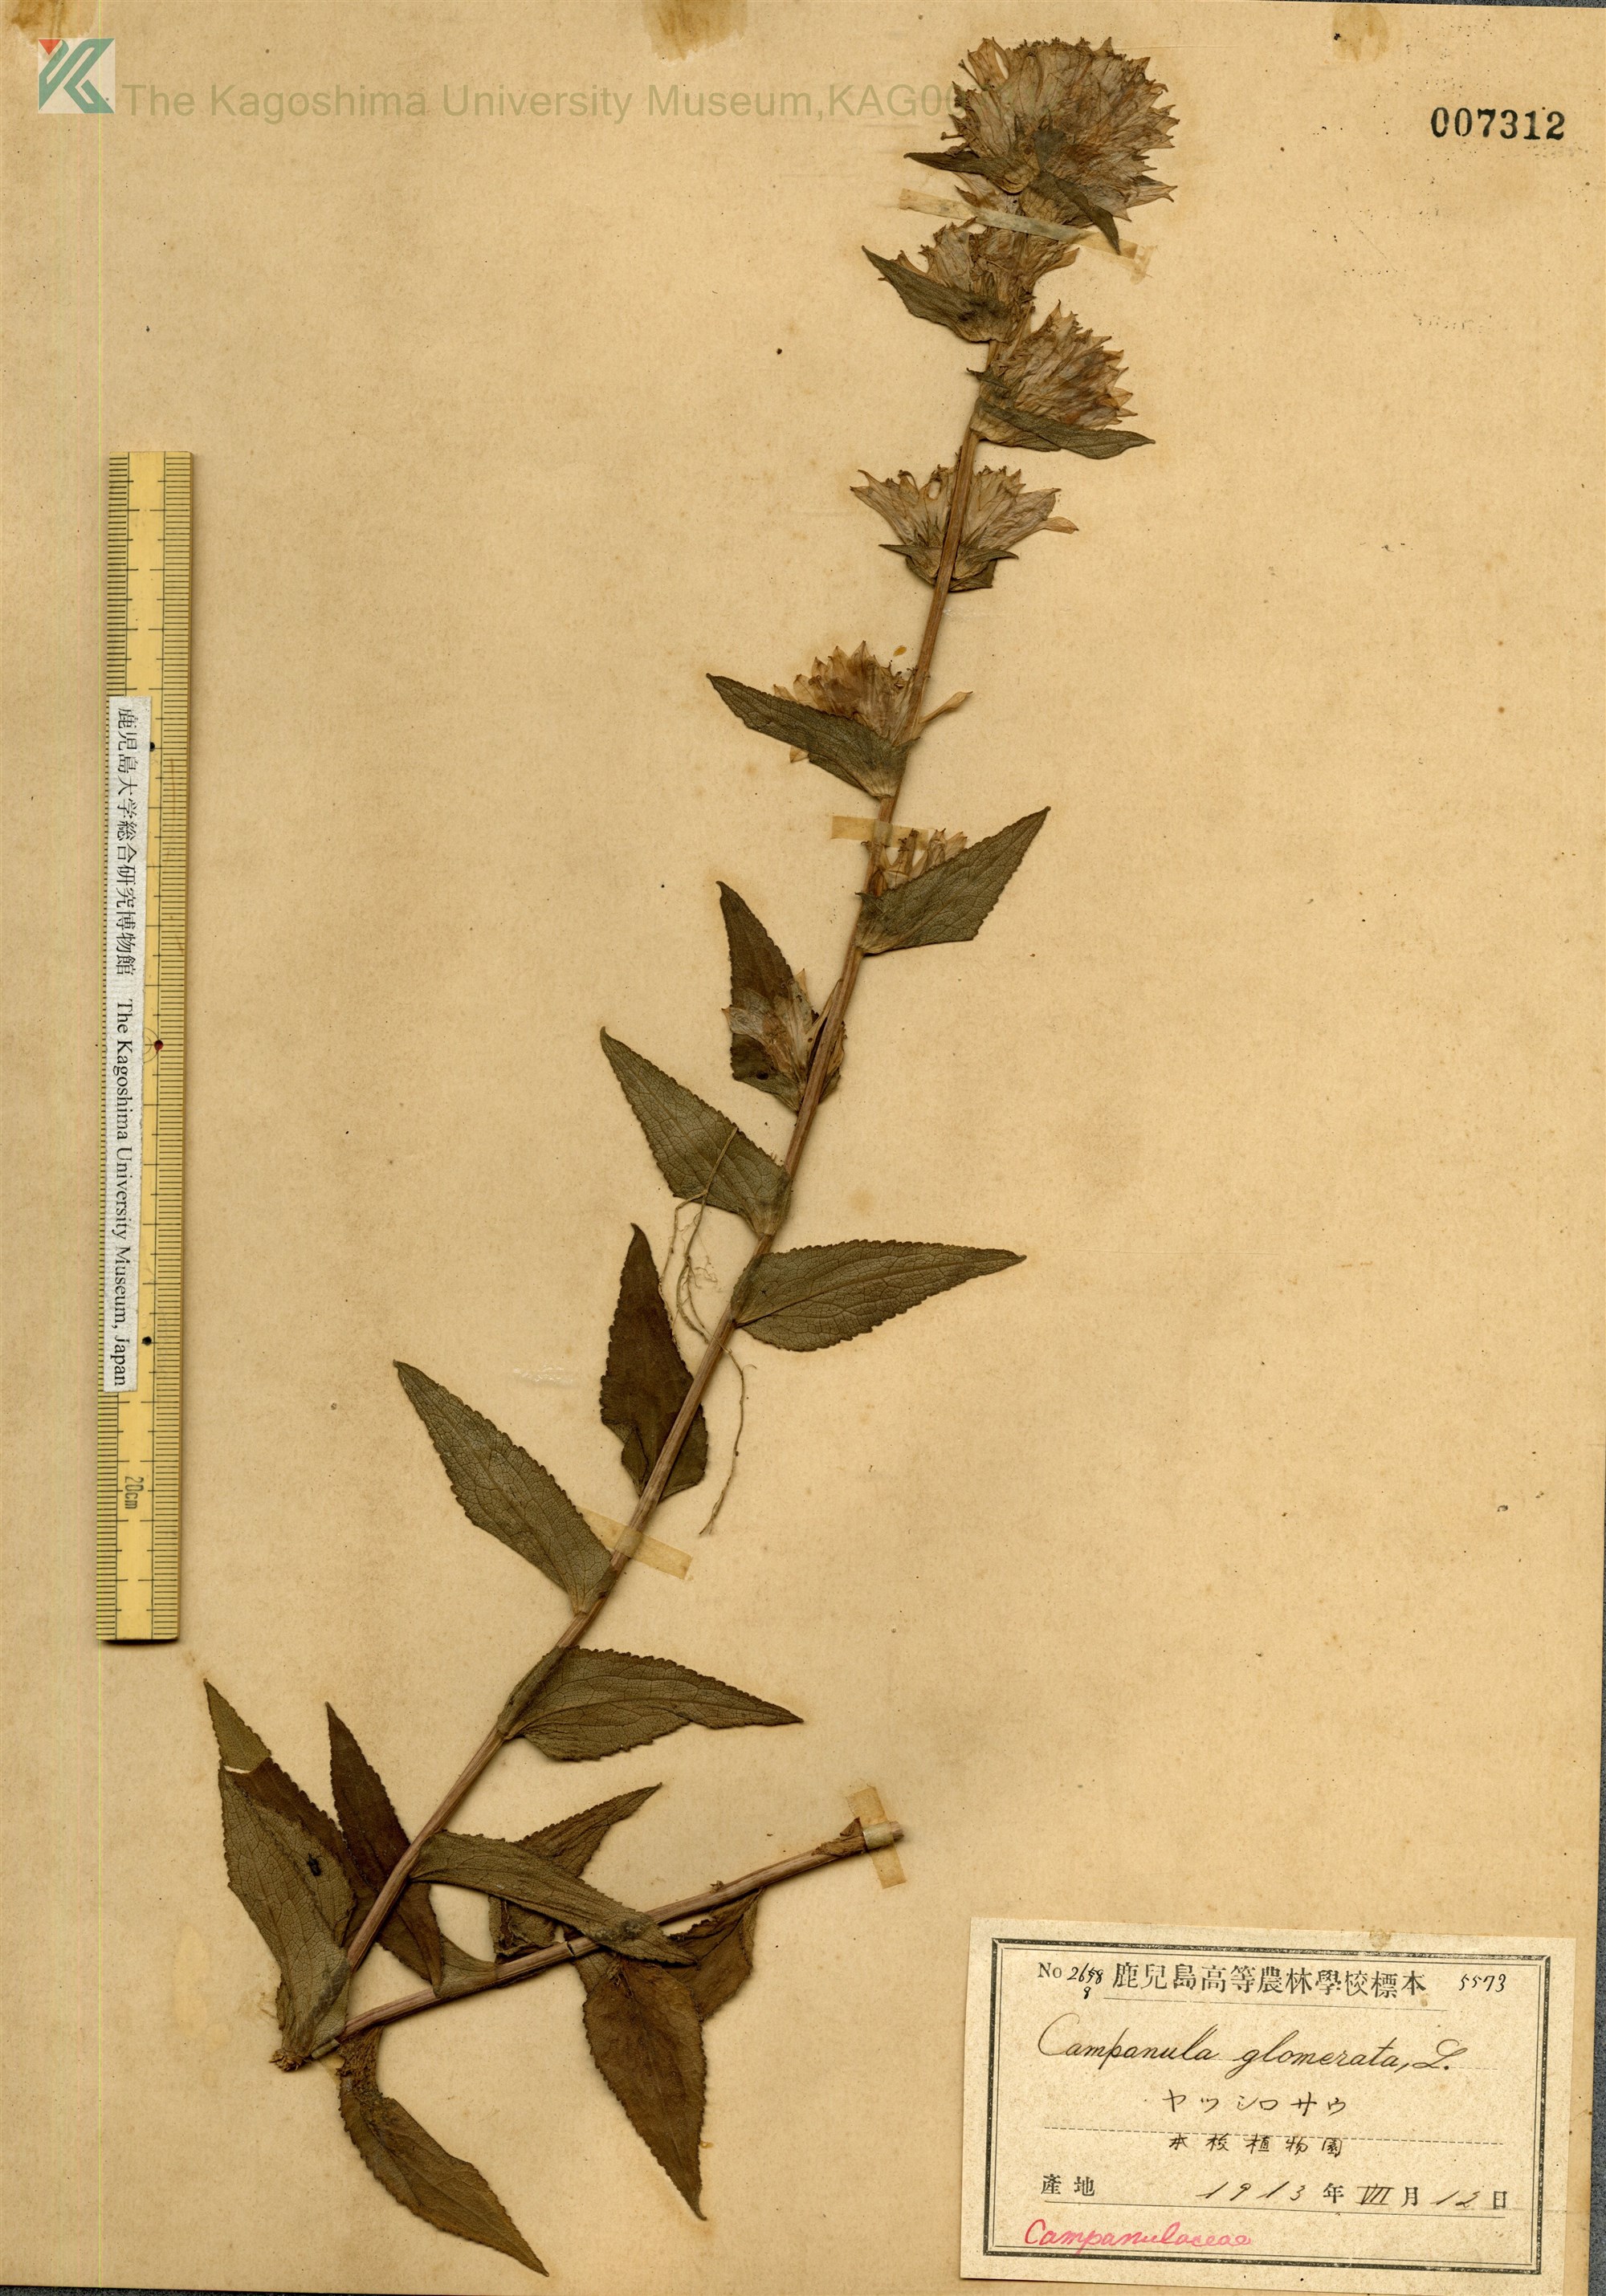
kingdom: Plantae
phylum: Tracheophyta
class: Magnoliopsida
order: Asterales
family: Campanulaceae
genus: Campanula
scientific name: Campanula glomerata
